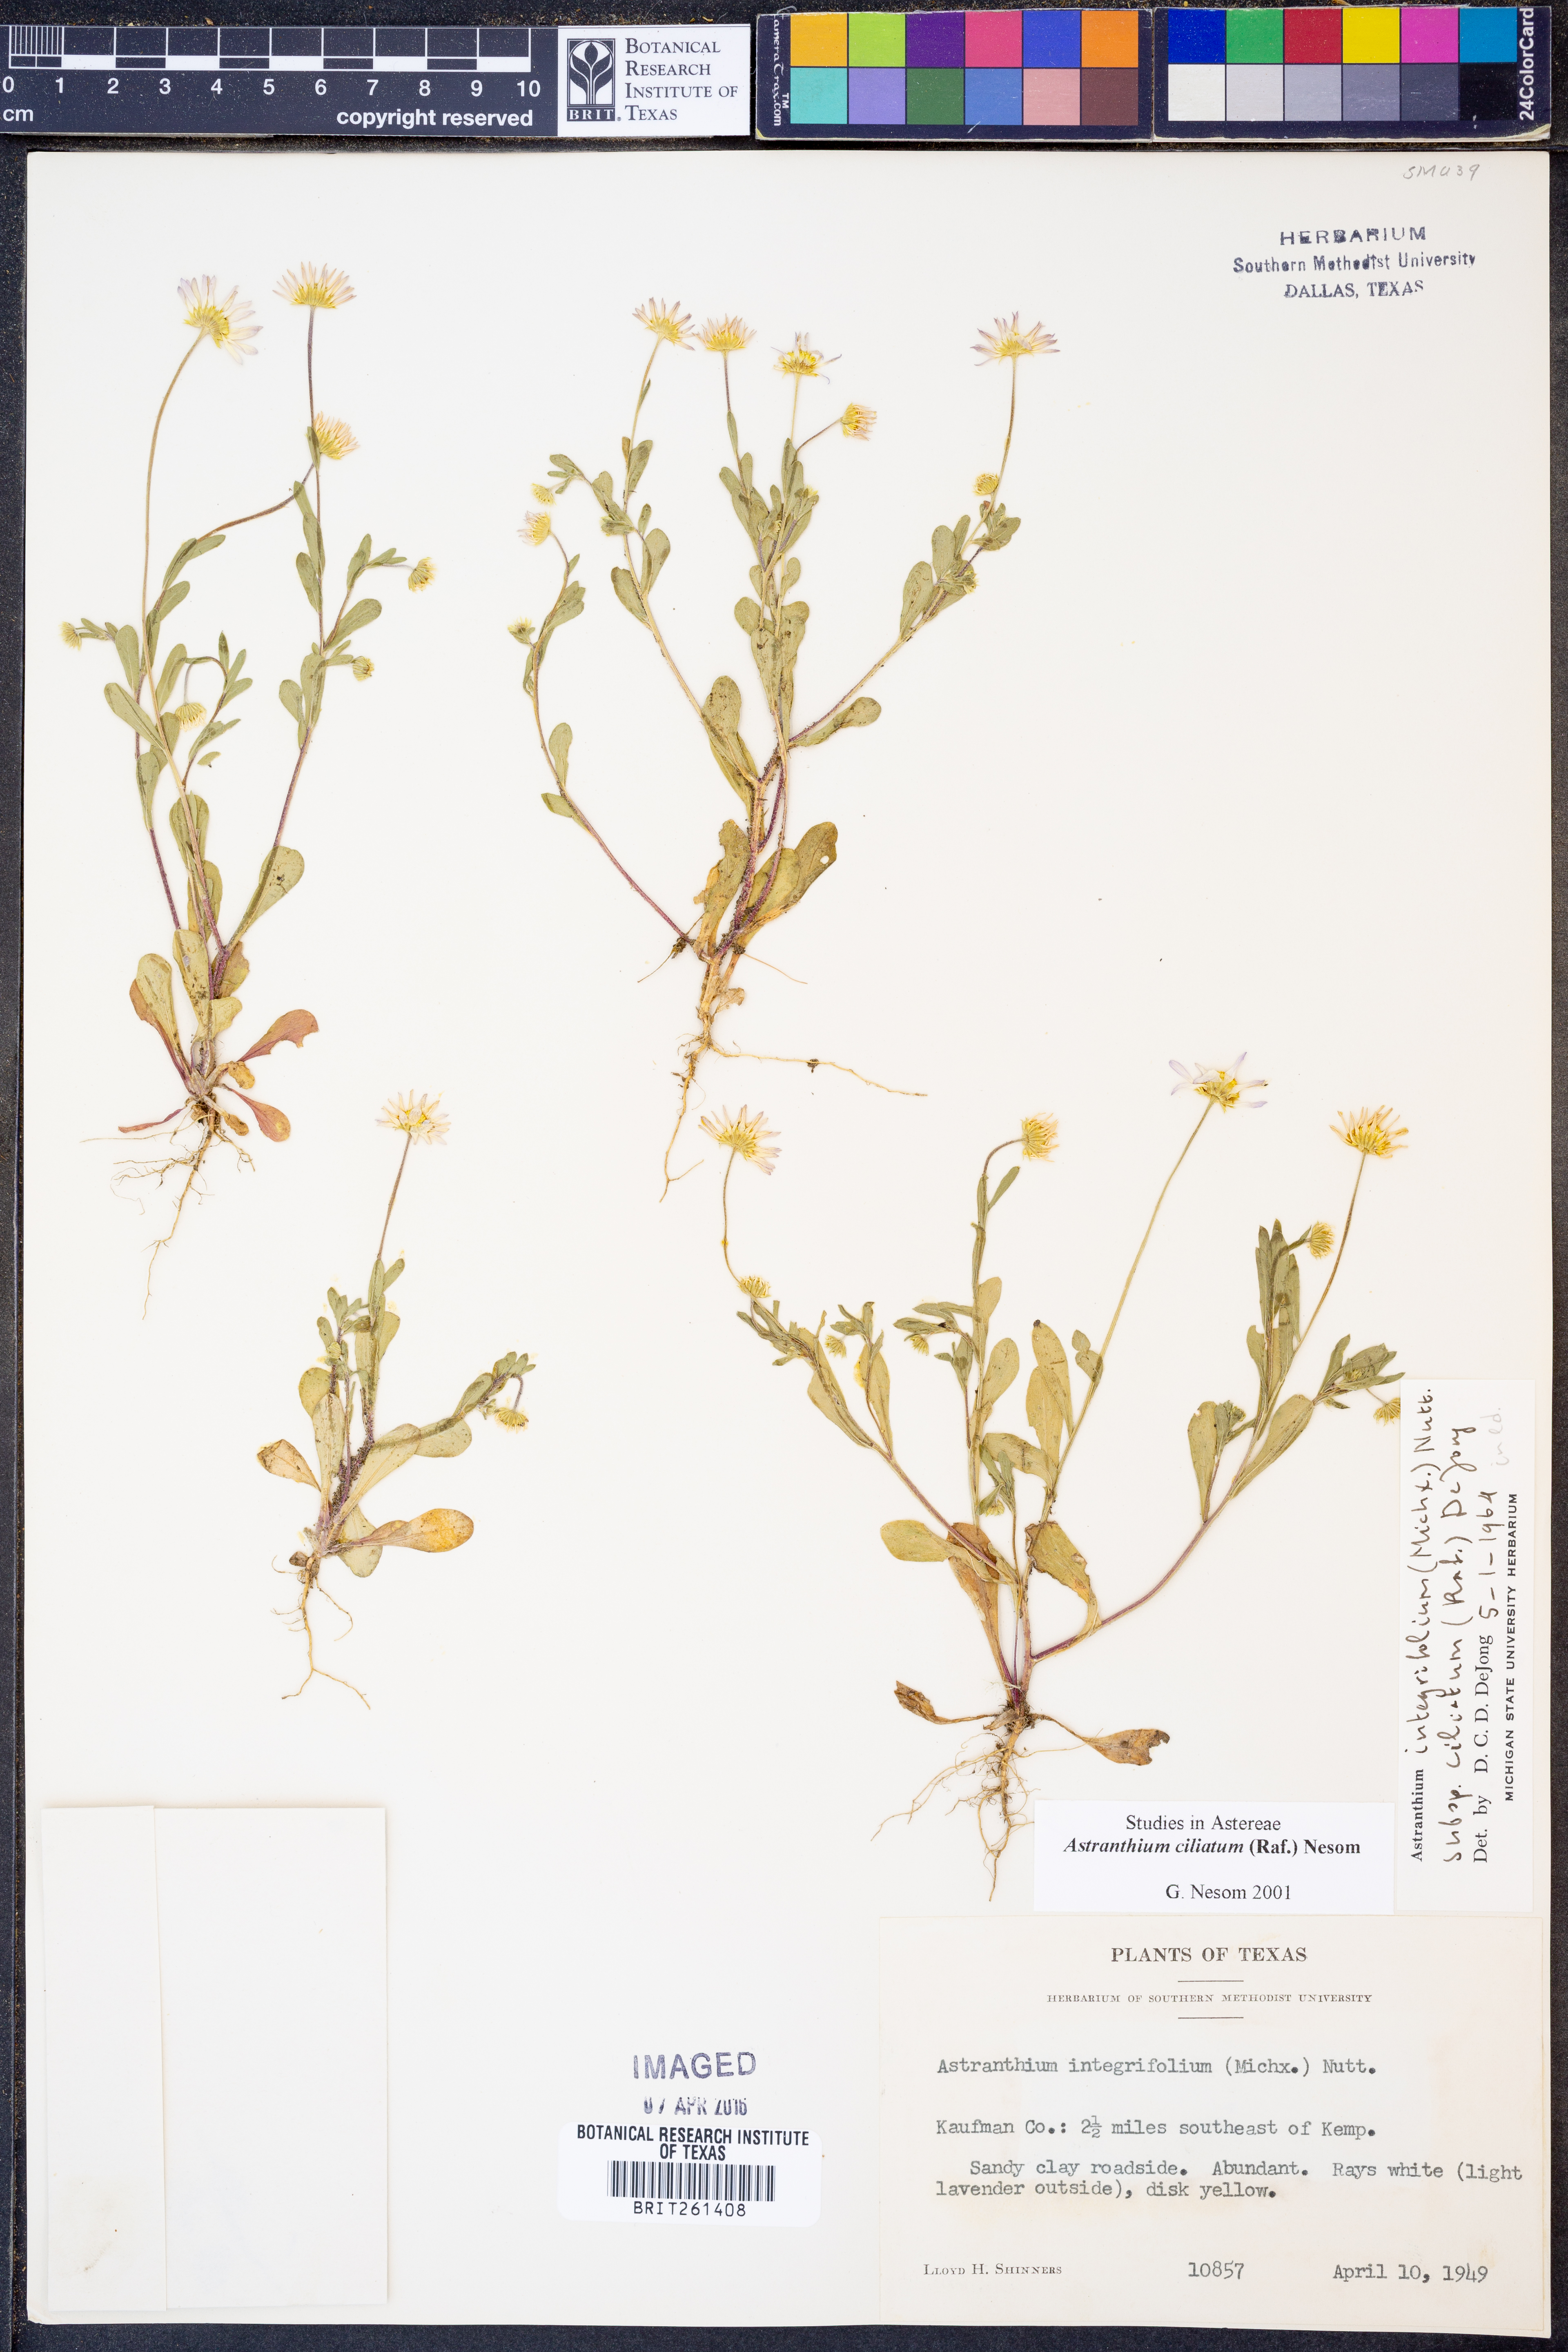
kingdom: Plantae
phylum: Tracheophyta
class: Magnoliopsida
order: Asterales
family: Asteraceae
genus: Astranthium
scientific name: Astranthium ciliatum
